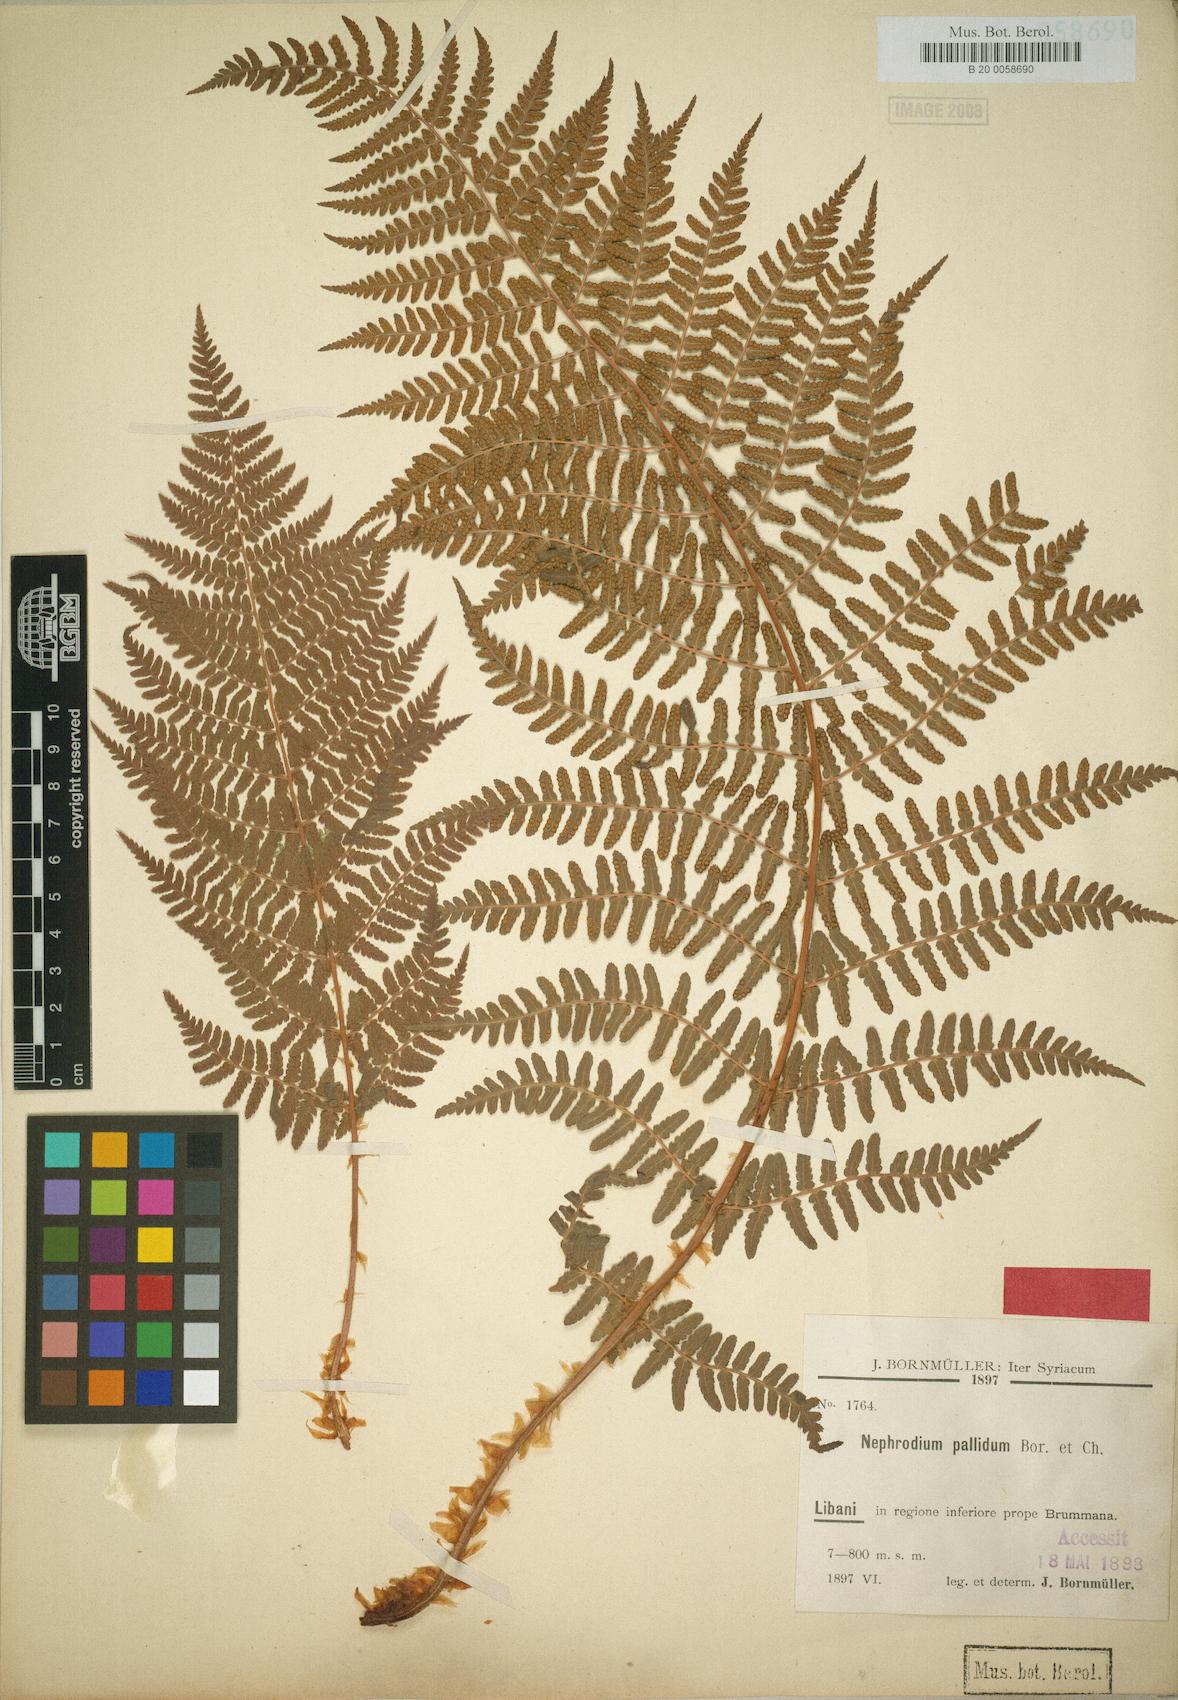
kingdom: Plantae
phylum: Tracheophyta
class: Polypodiopsida
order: Polypodiales
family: Dryopteridaceae
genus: Dryopteris
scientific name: Dryopteris pallida
